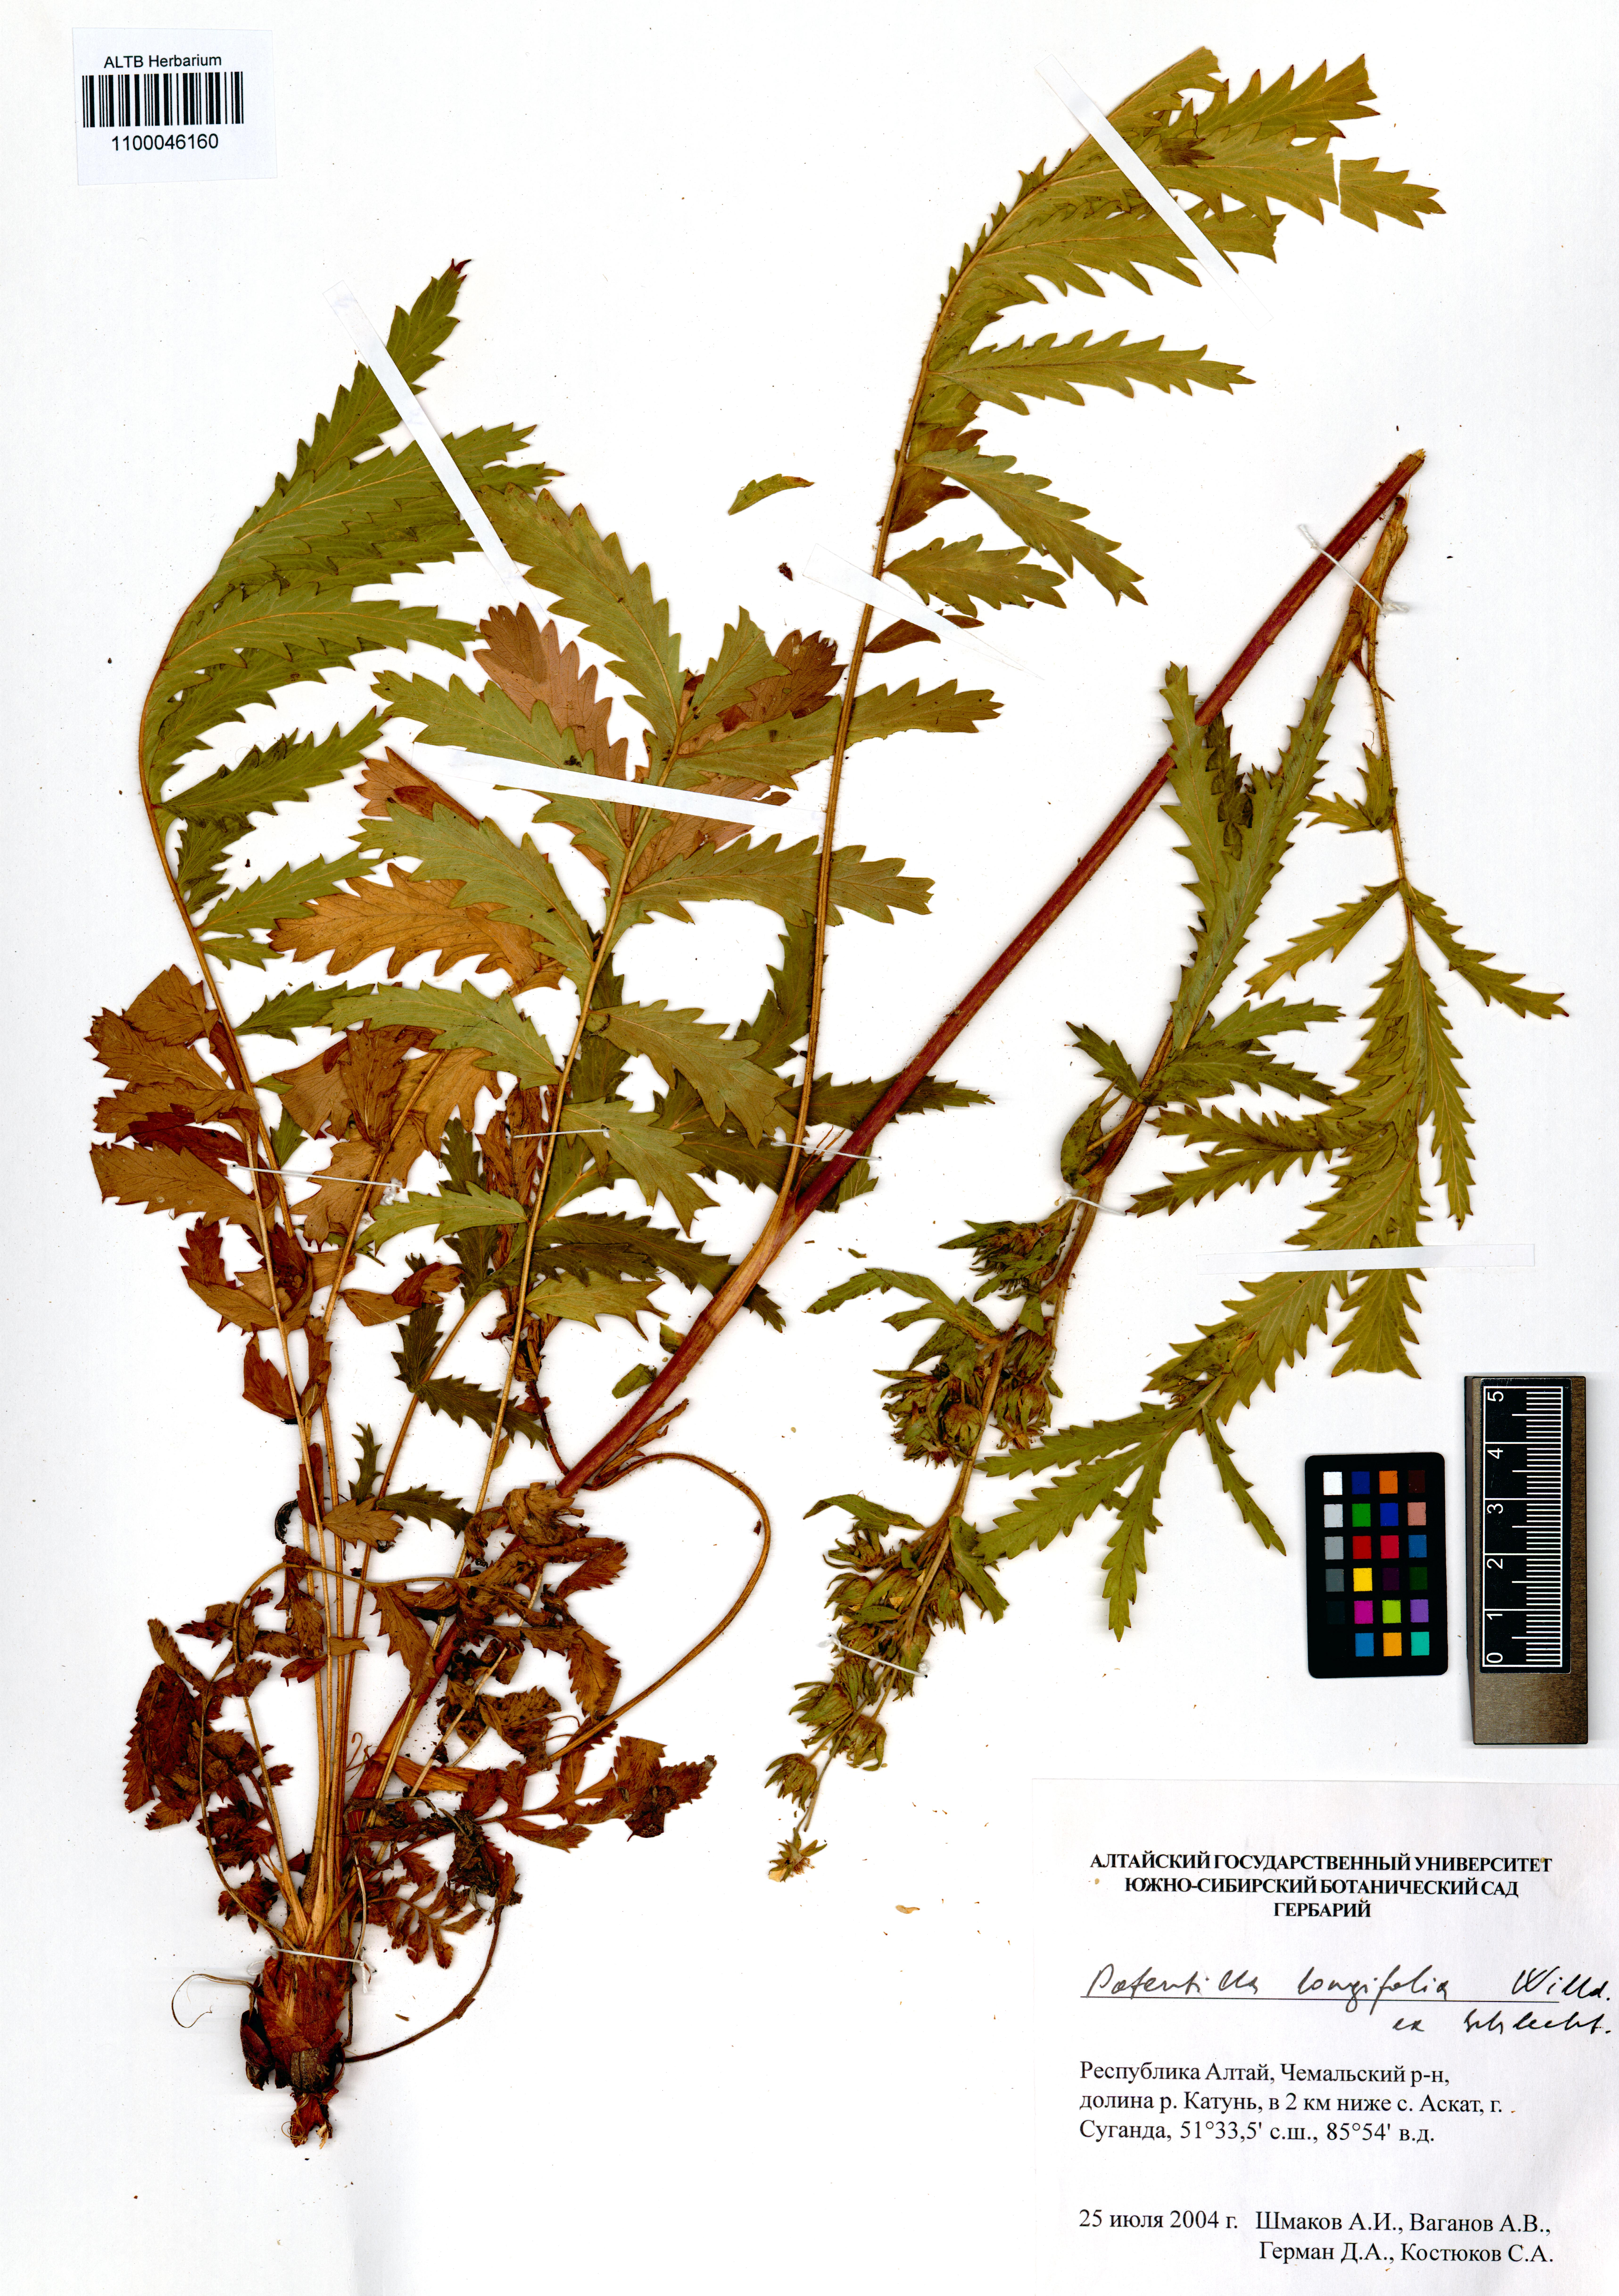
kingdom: Plantae
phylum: Tracheophyta
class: Magnoliopsida
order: Rosales
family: Rosaceae
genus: Potentilla
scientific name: Potentilla longifolia
